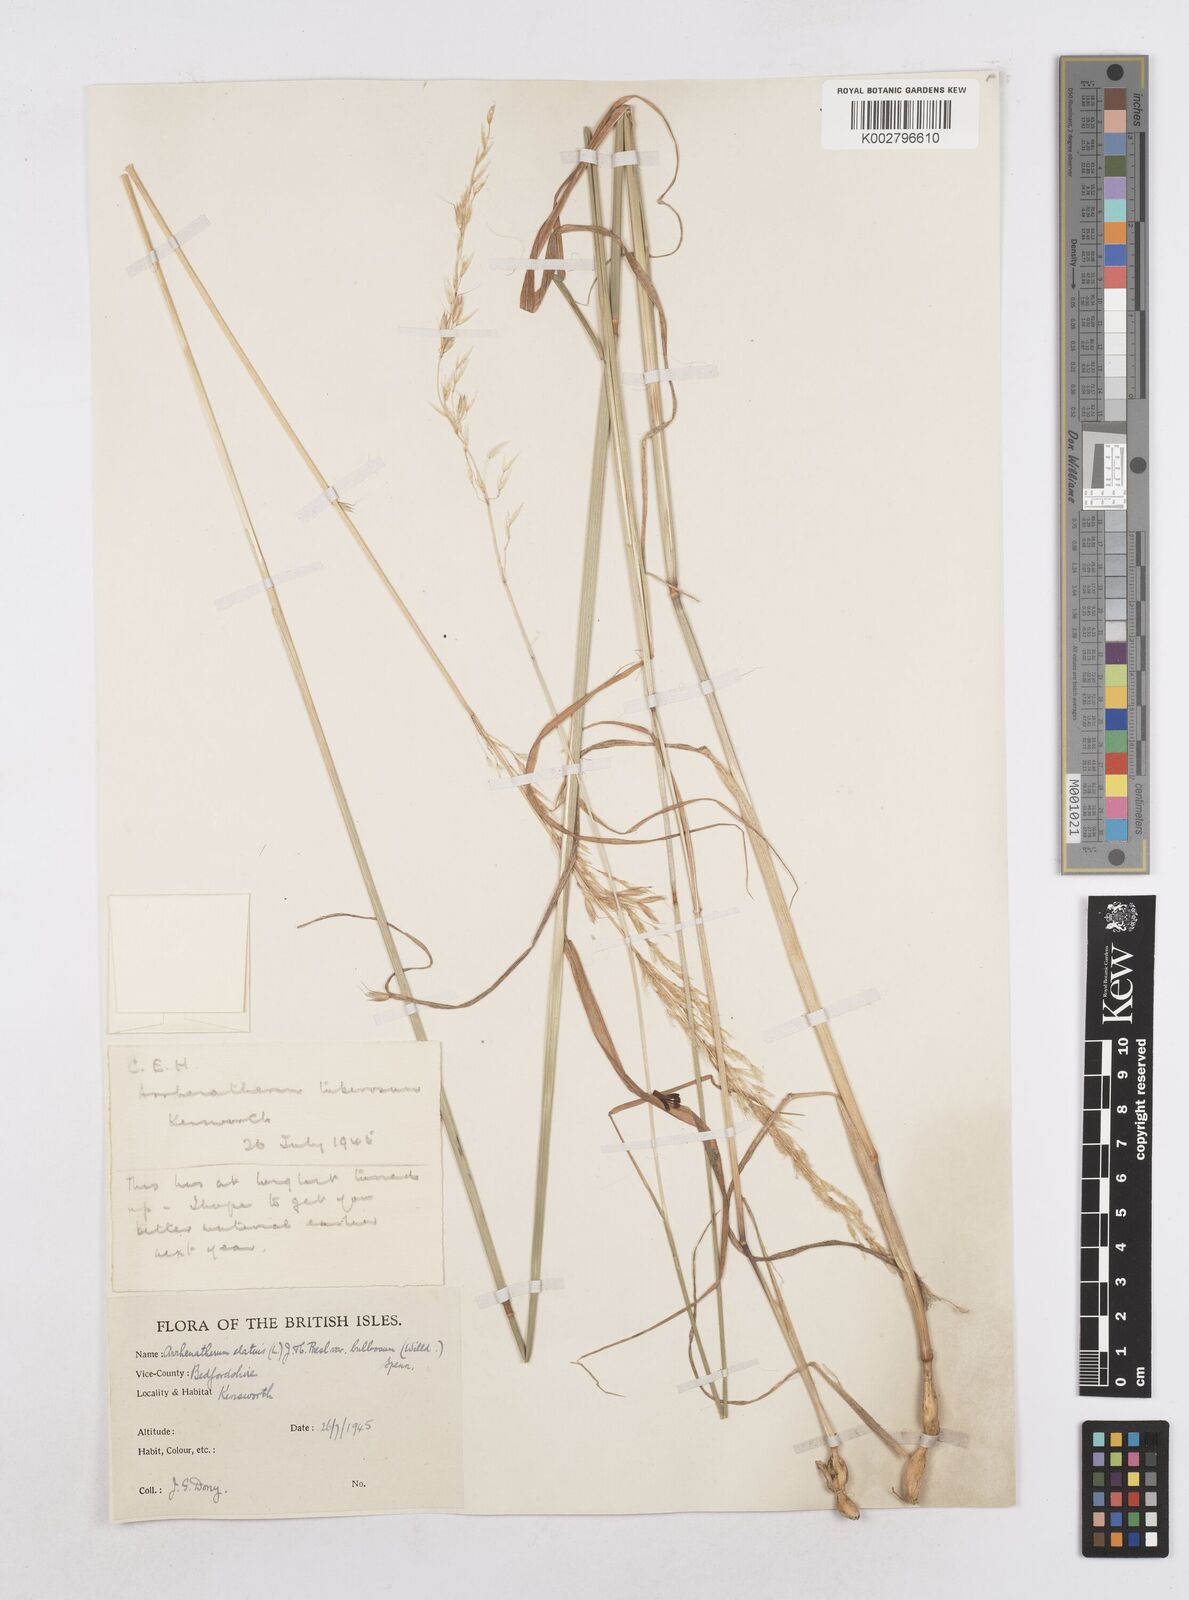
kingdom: Plantae
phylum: Tracheophyta
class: Liliopsida
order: Poales
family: Poaceae
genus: Arrhenatherum
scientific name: Arrhenatherum elatius
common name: Tall oatgrass
